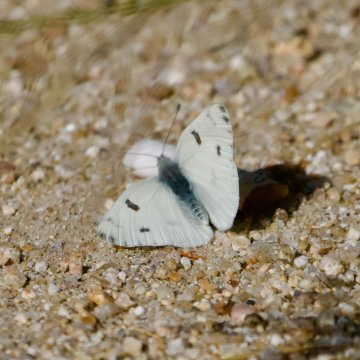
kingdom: Animalia
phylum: Arthropoda
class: Insecta
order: Lepidoptera
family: Pieridae
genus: Pontia
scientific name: Pontia
